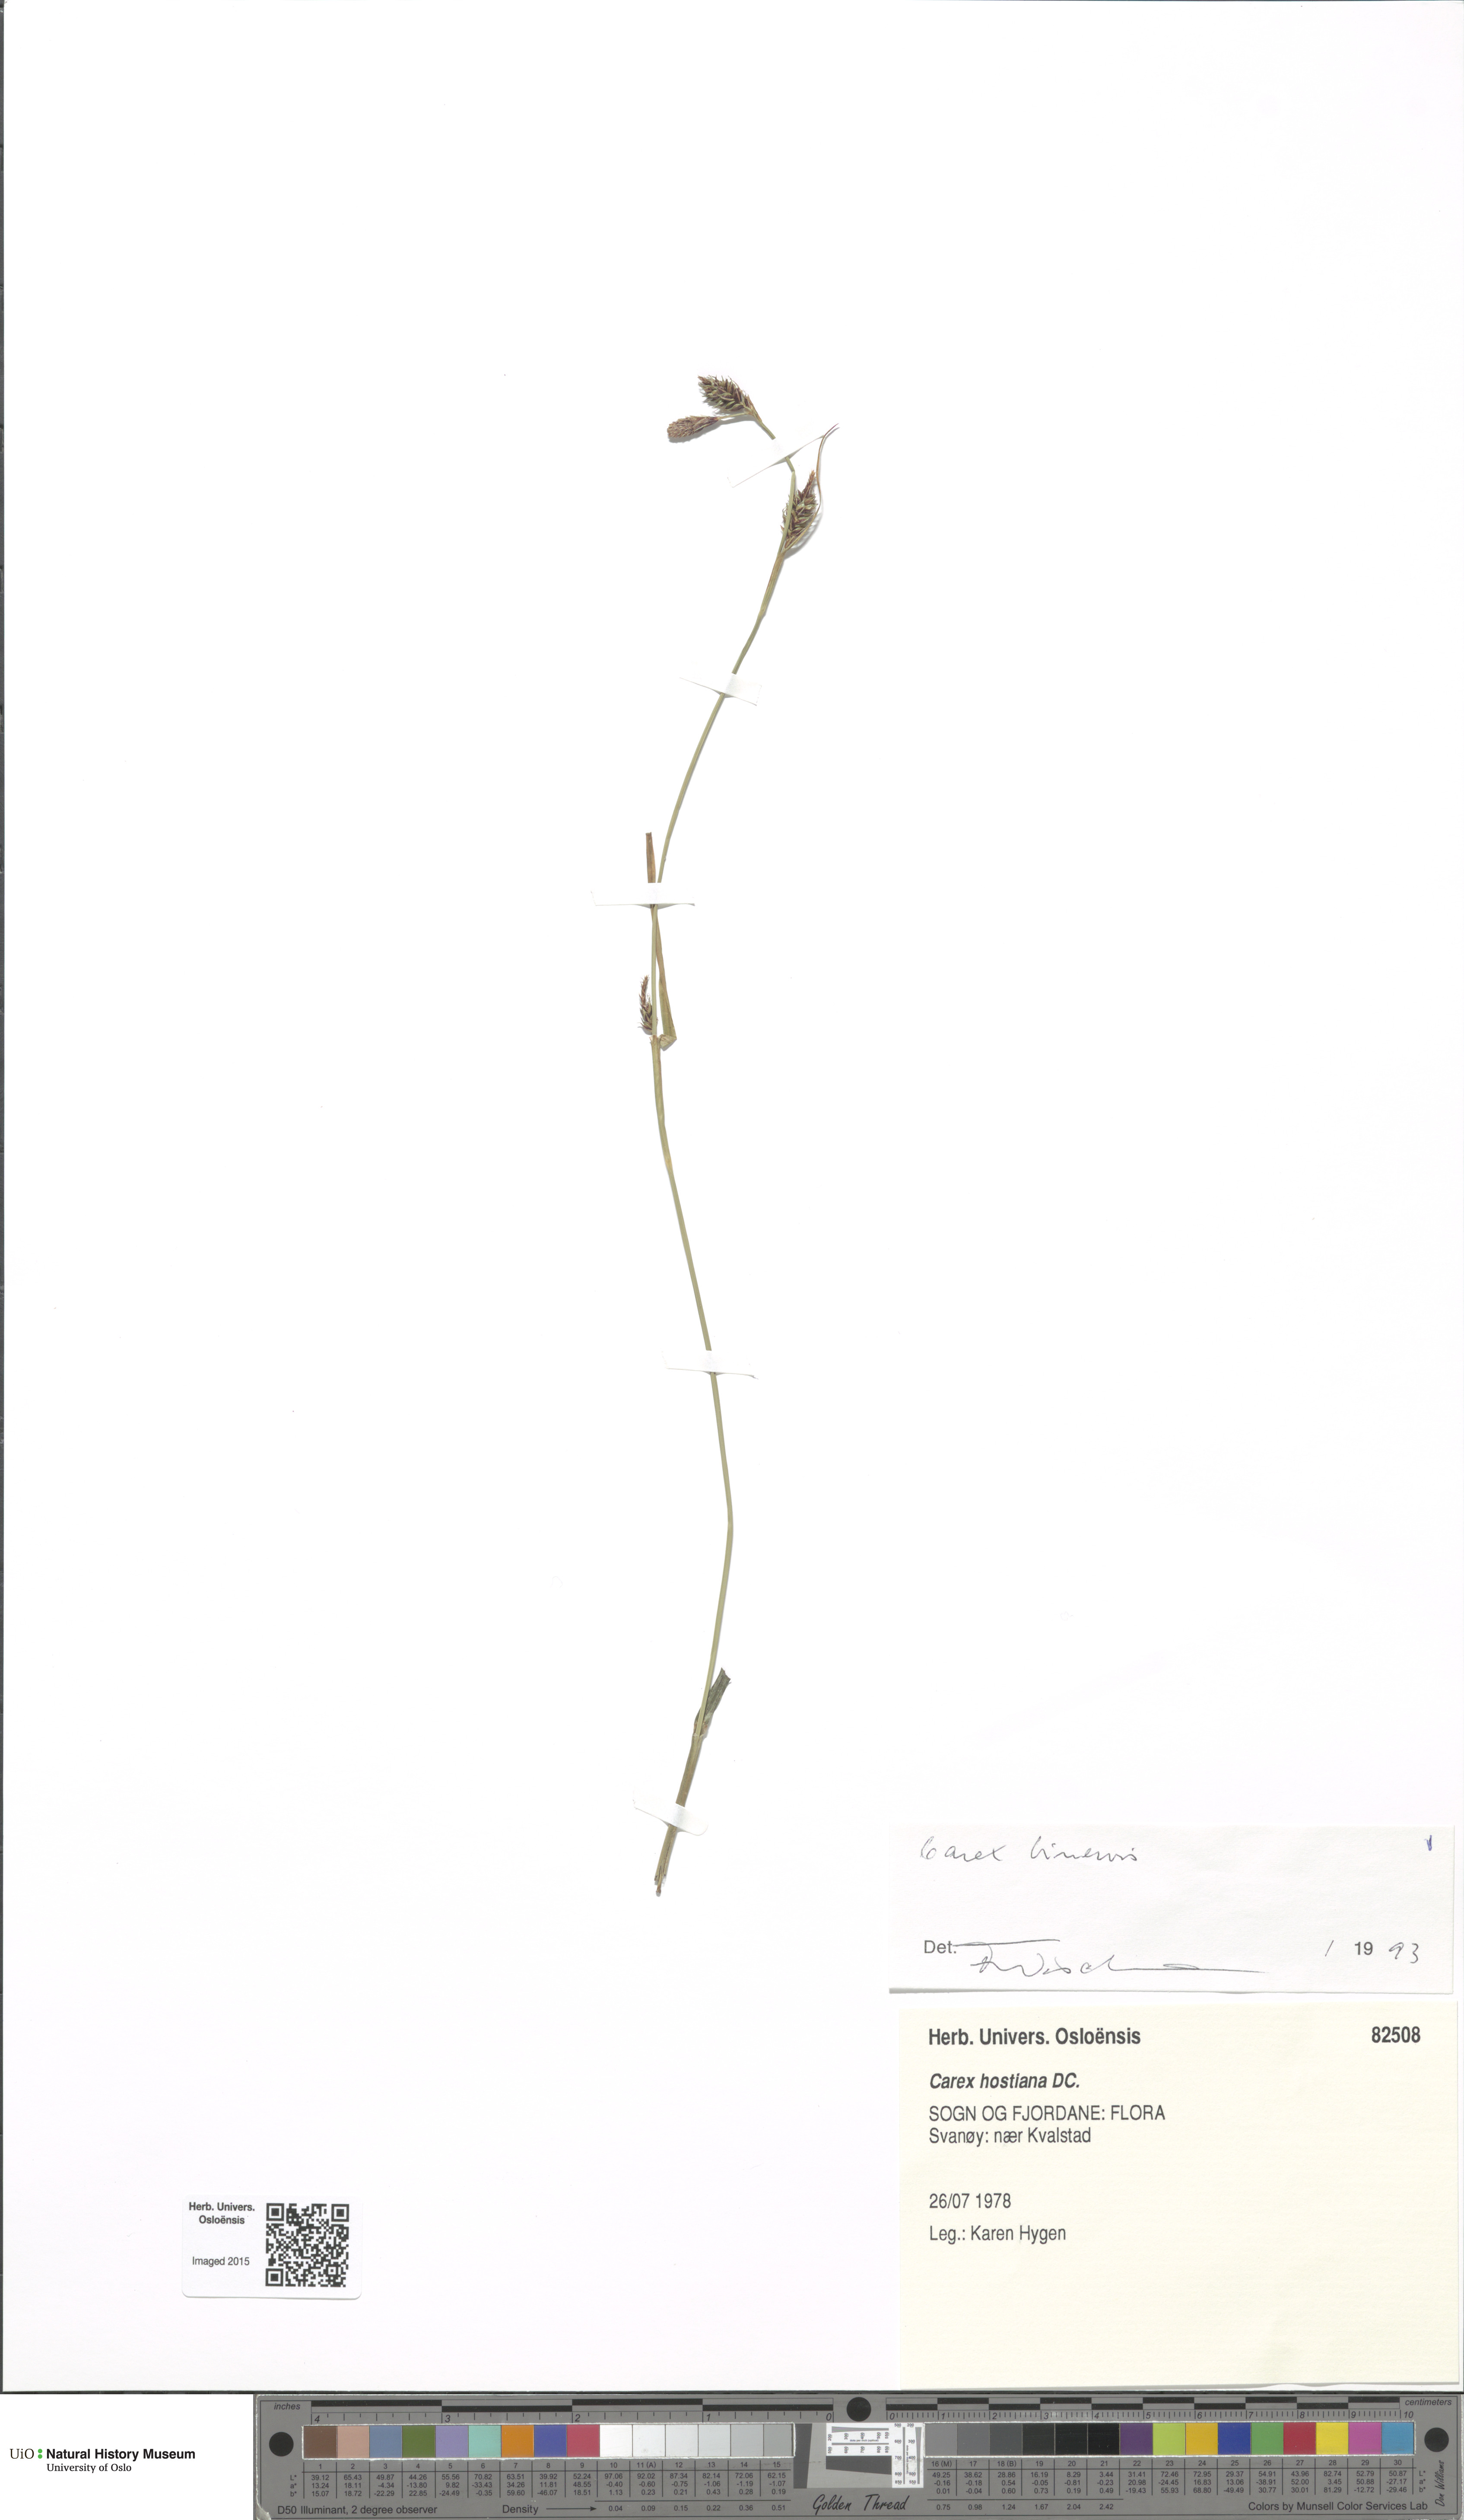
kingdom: Plantae
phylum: Tracheophyta
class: Liliopsida
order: Poales
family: Cyperaceae
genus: Carex
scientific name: Carex binervis
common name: Green-ribbed sedge
